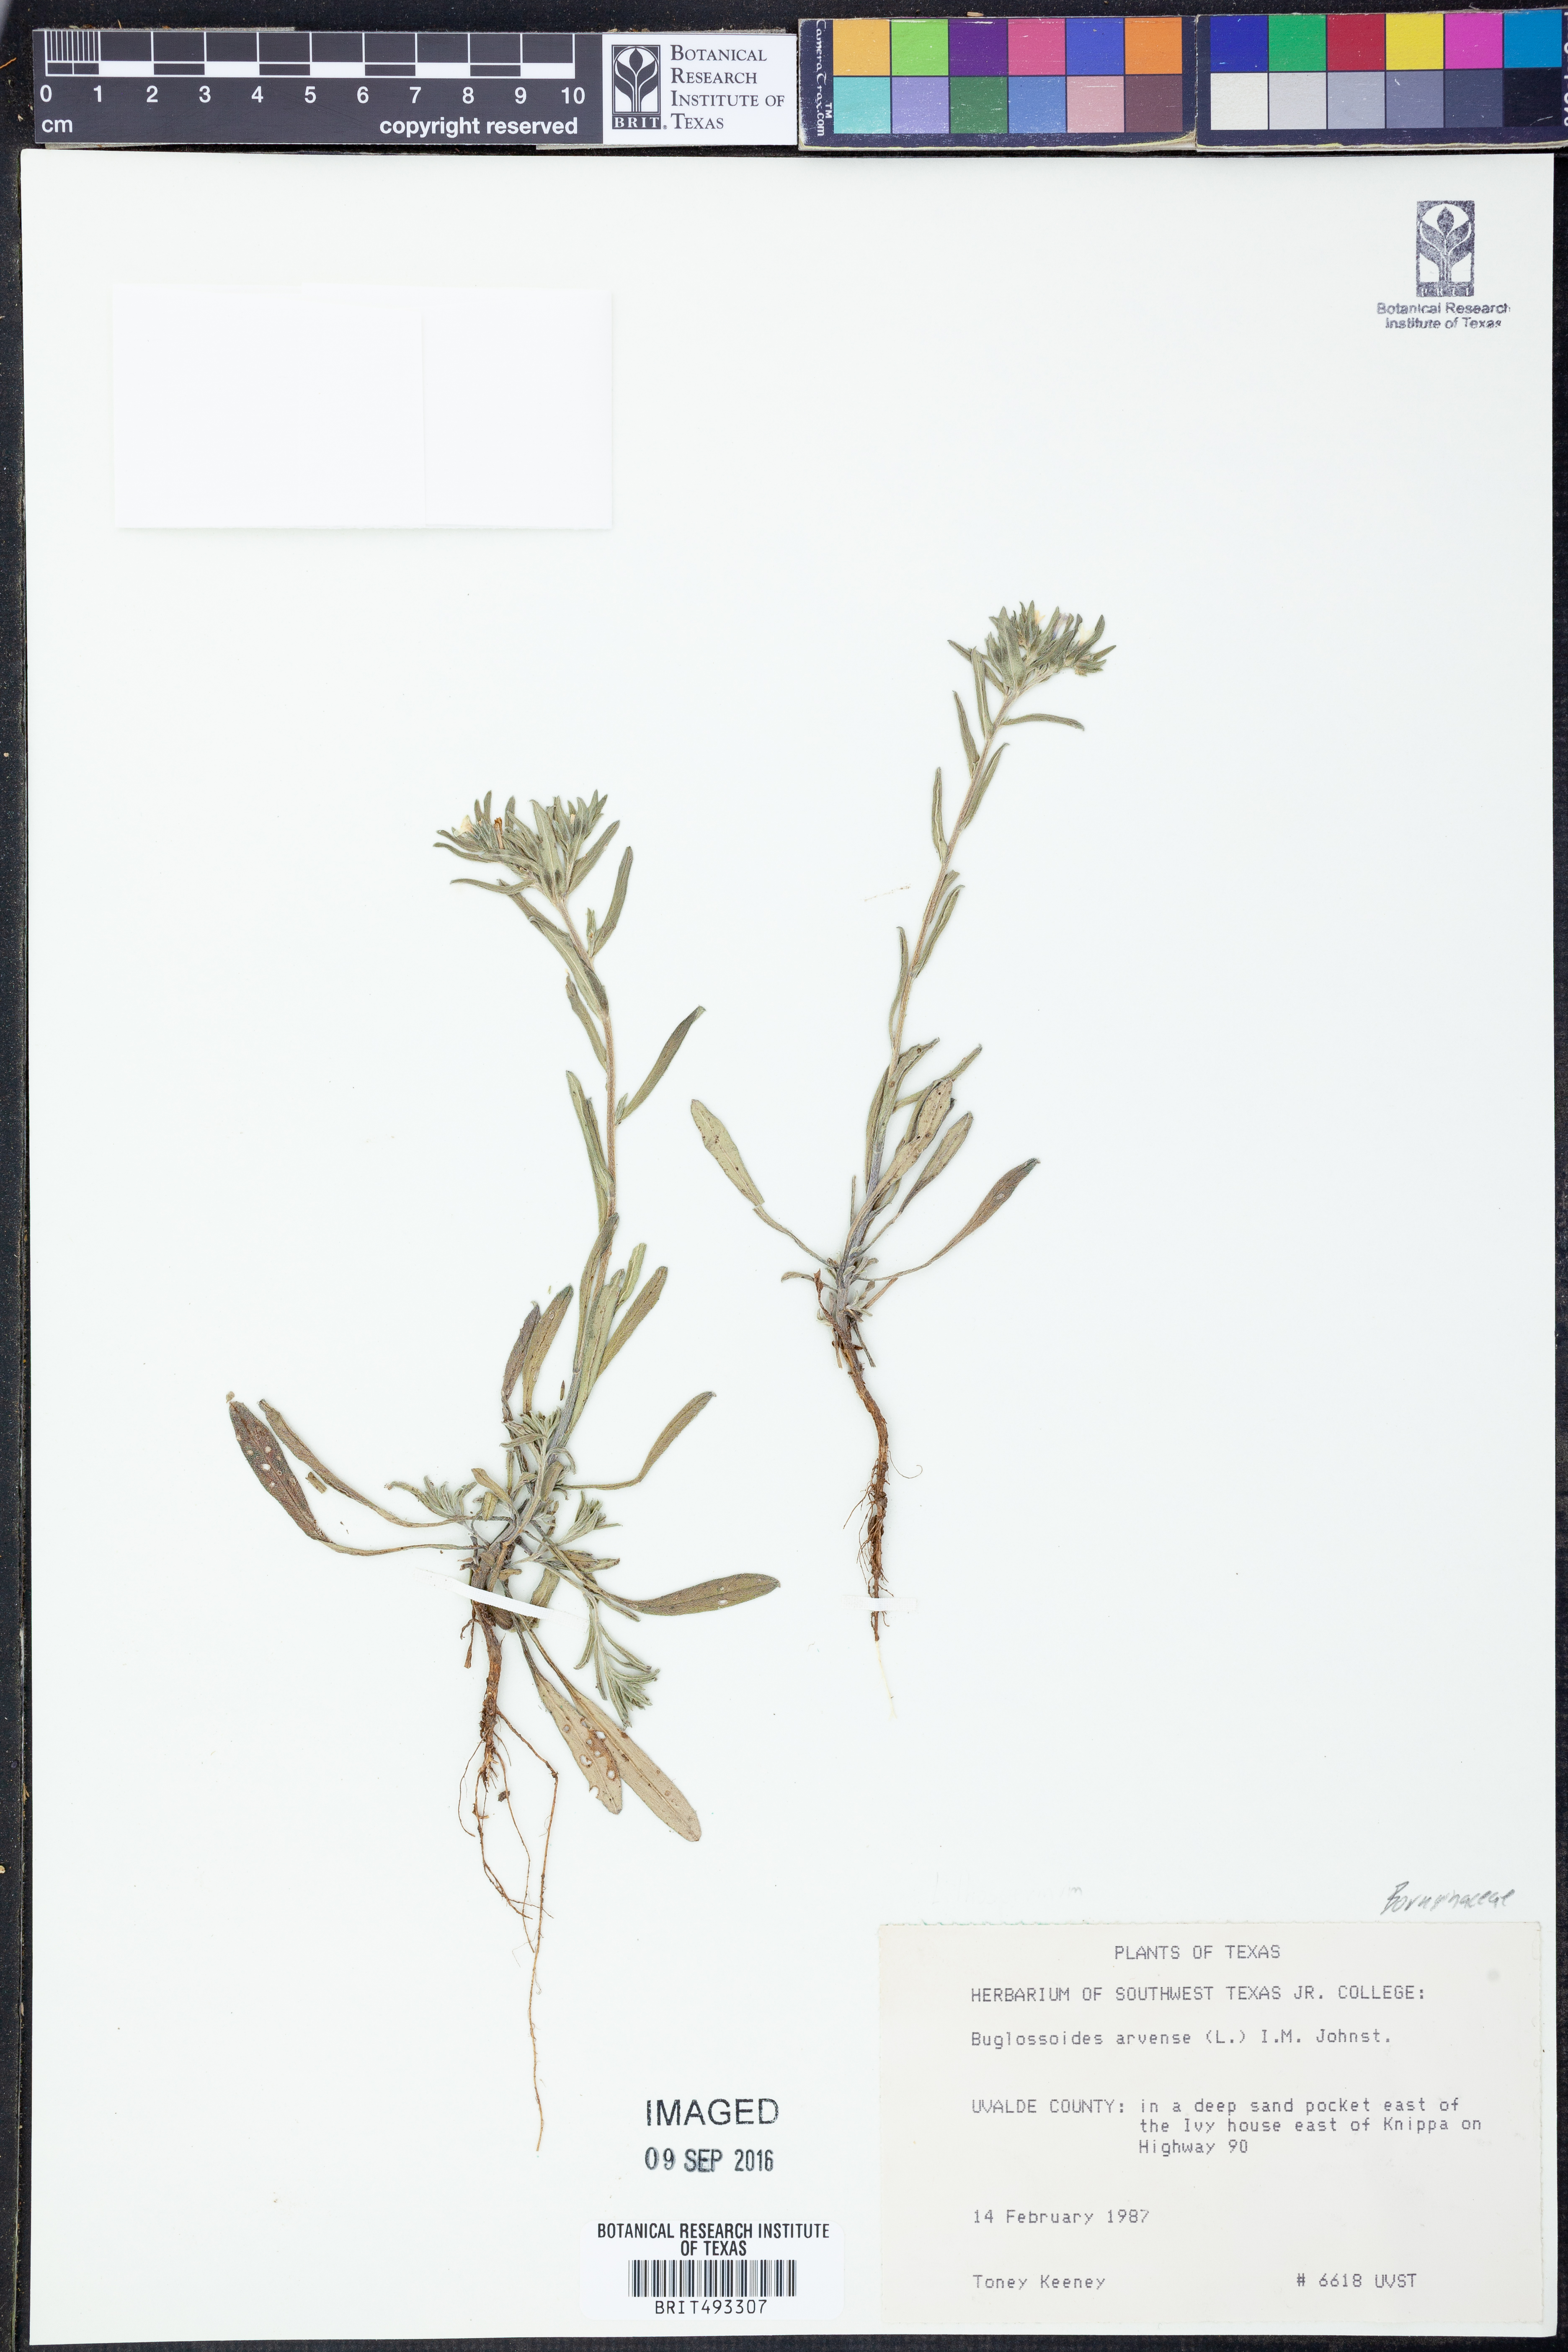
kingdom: Plantae
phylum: Tracheophyta
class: Magnoliopsida
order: Boraginales
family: Boraginaceae
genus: Buglossoides
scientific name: Buglossoides arvensis
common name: Corn gromwell
